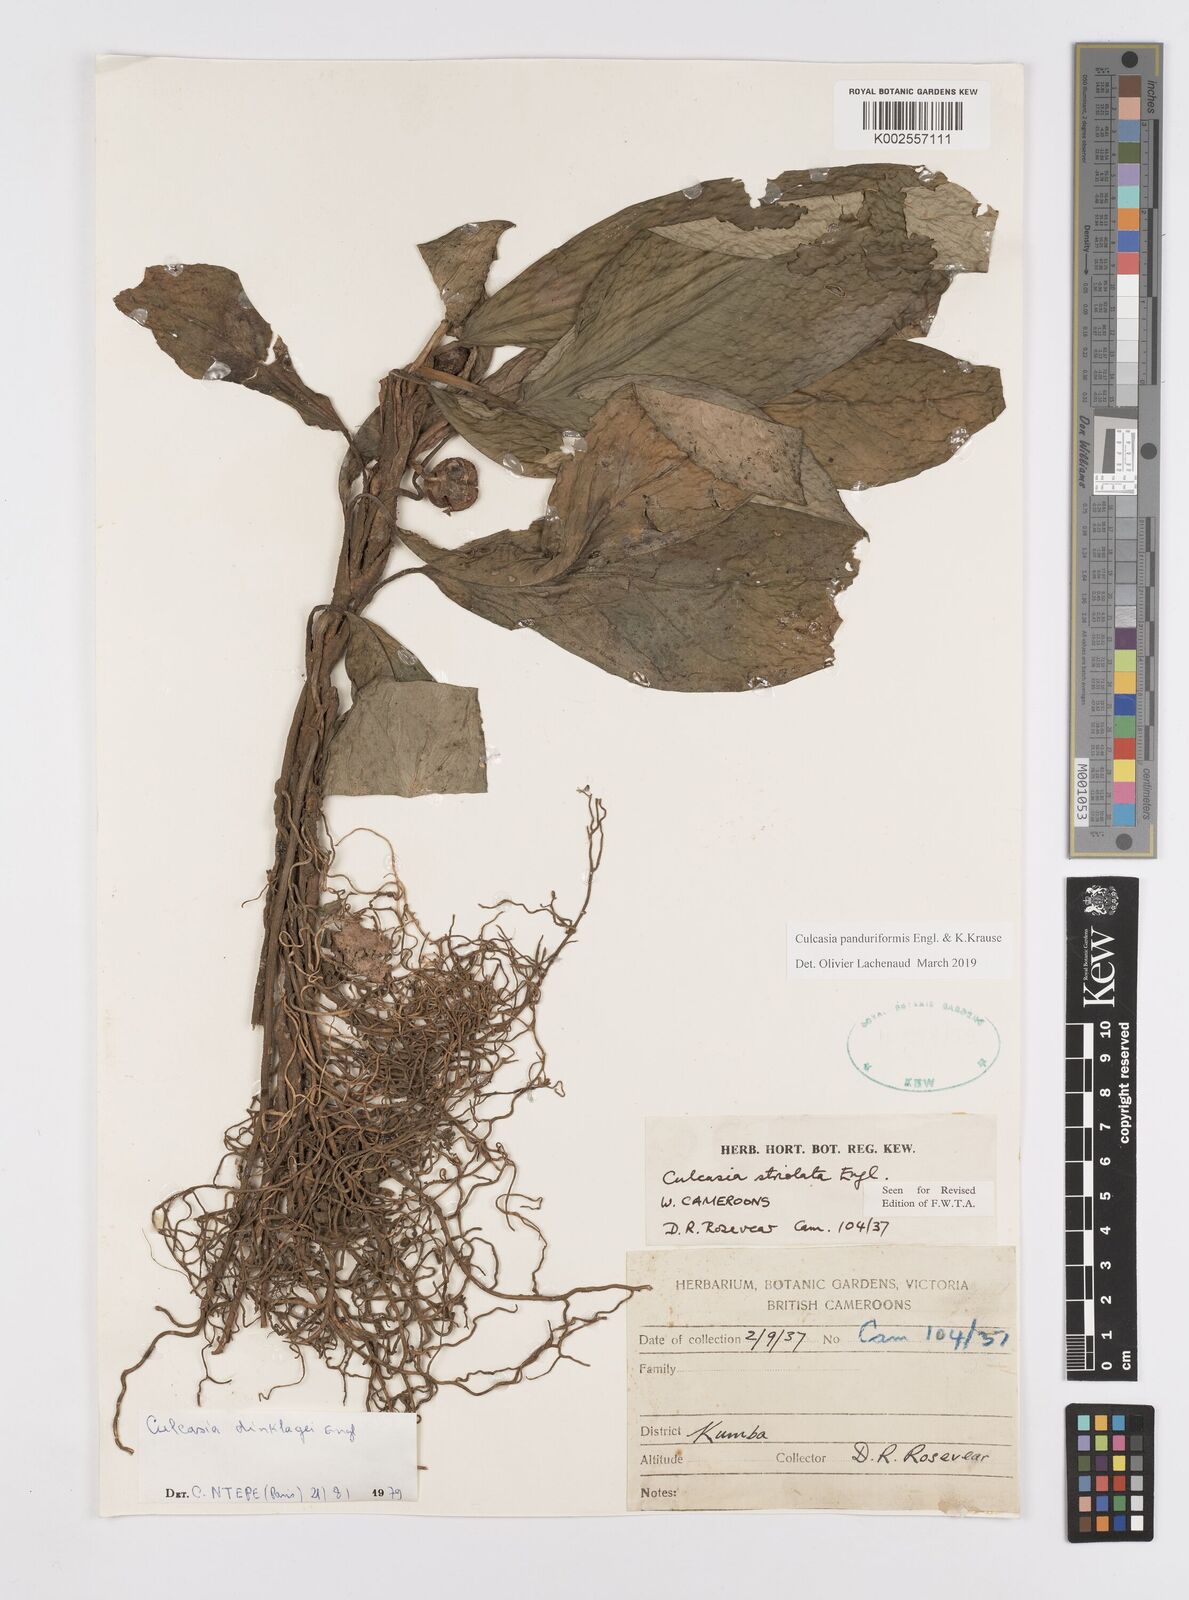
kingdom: Plantae
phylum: Tracheophyta
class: Liliopsida
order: Alismatales
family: Araceae
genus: Culcasia
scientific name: Culcasia panduriformis
